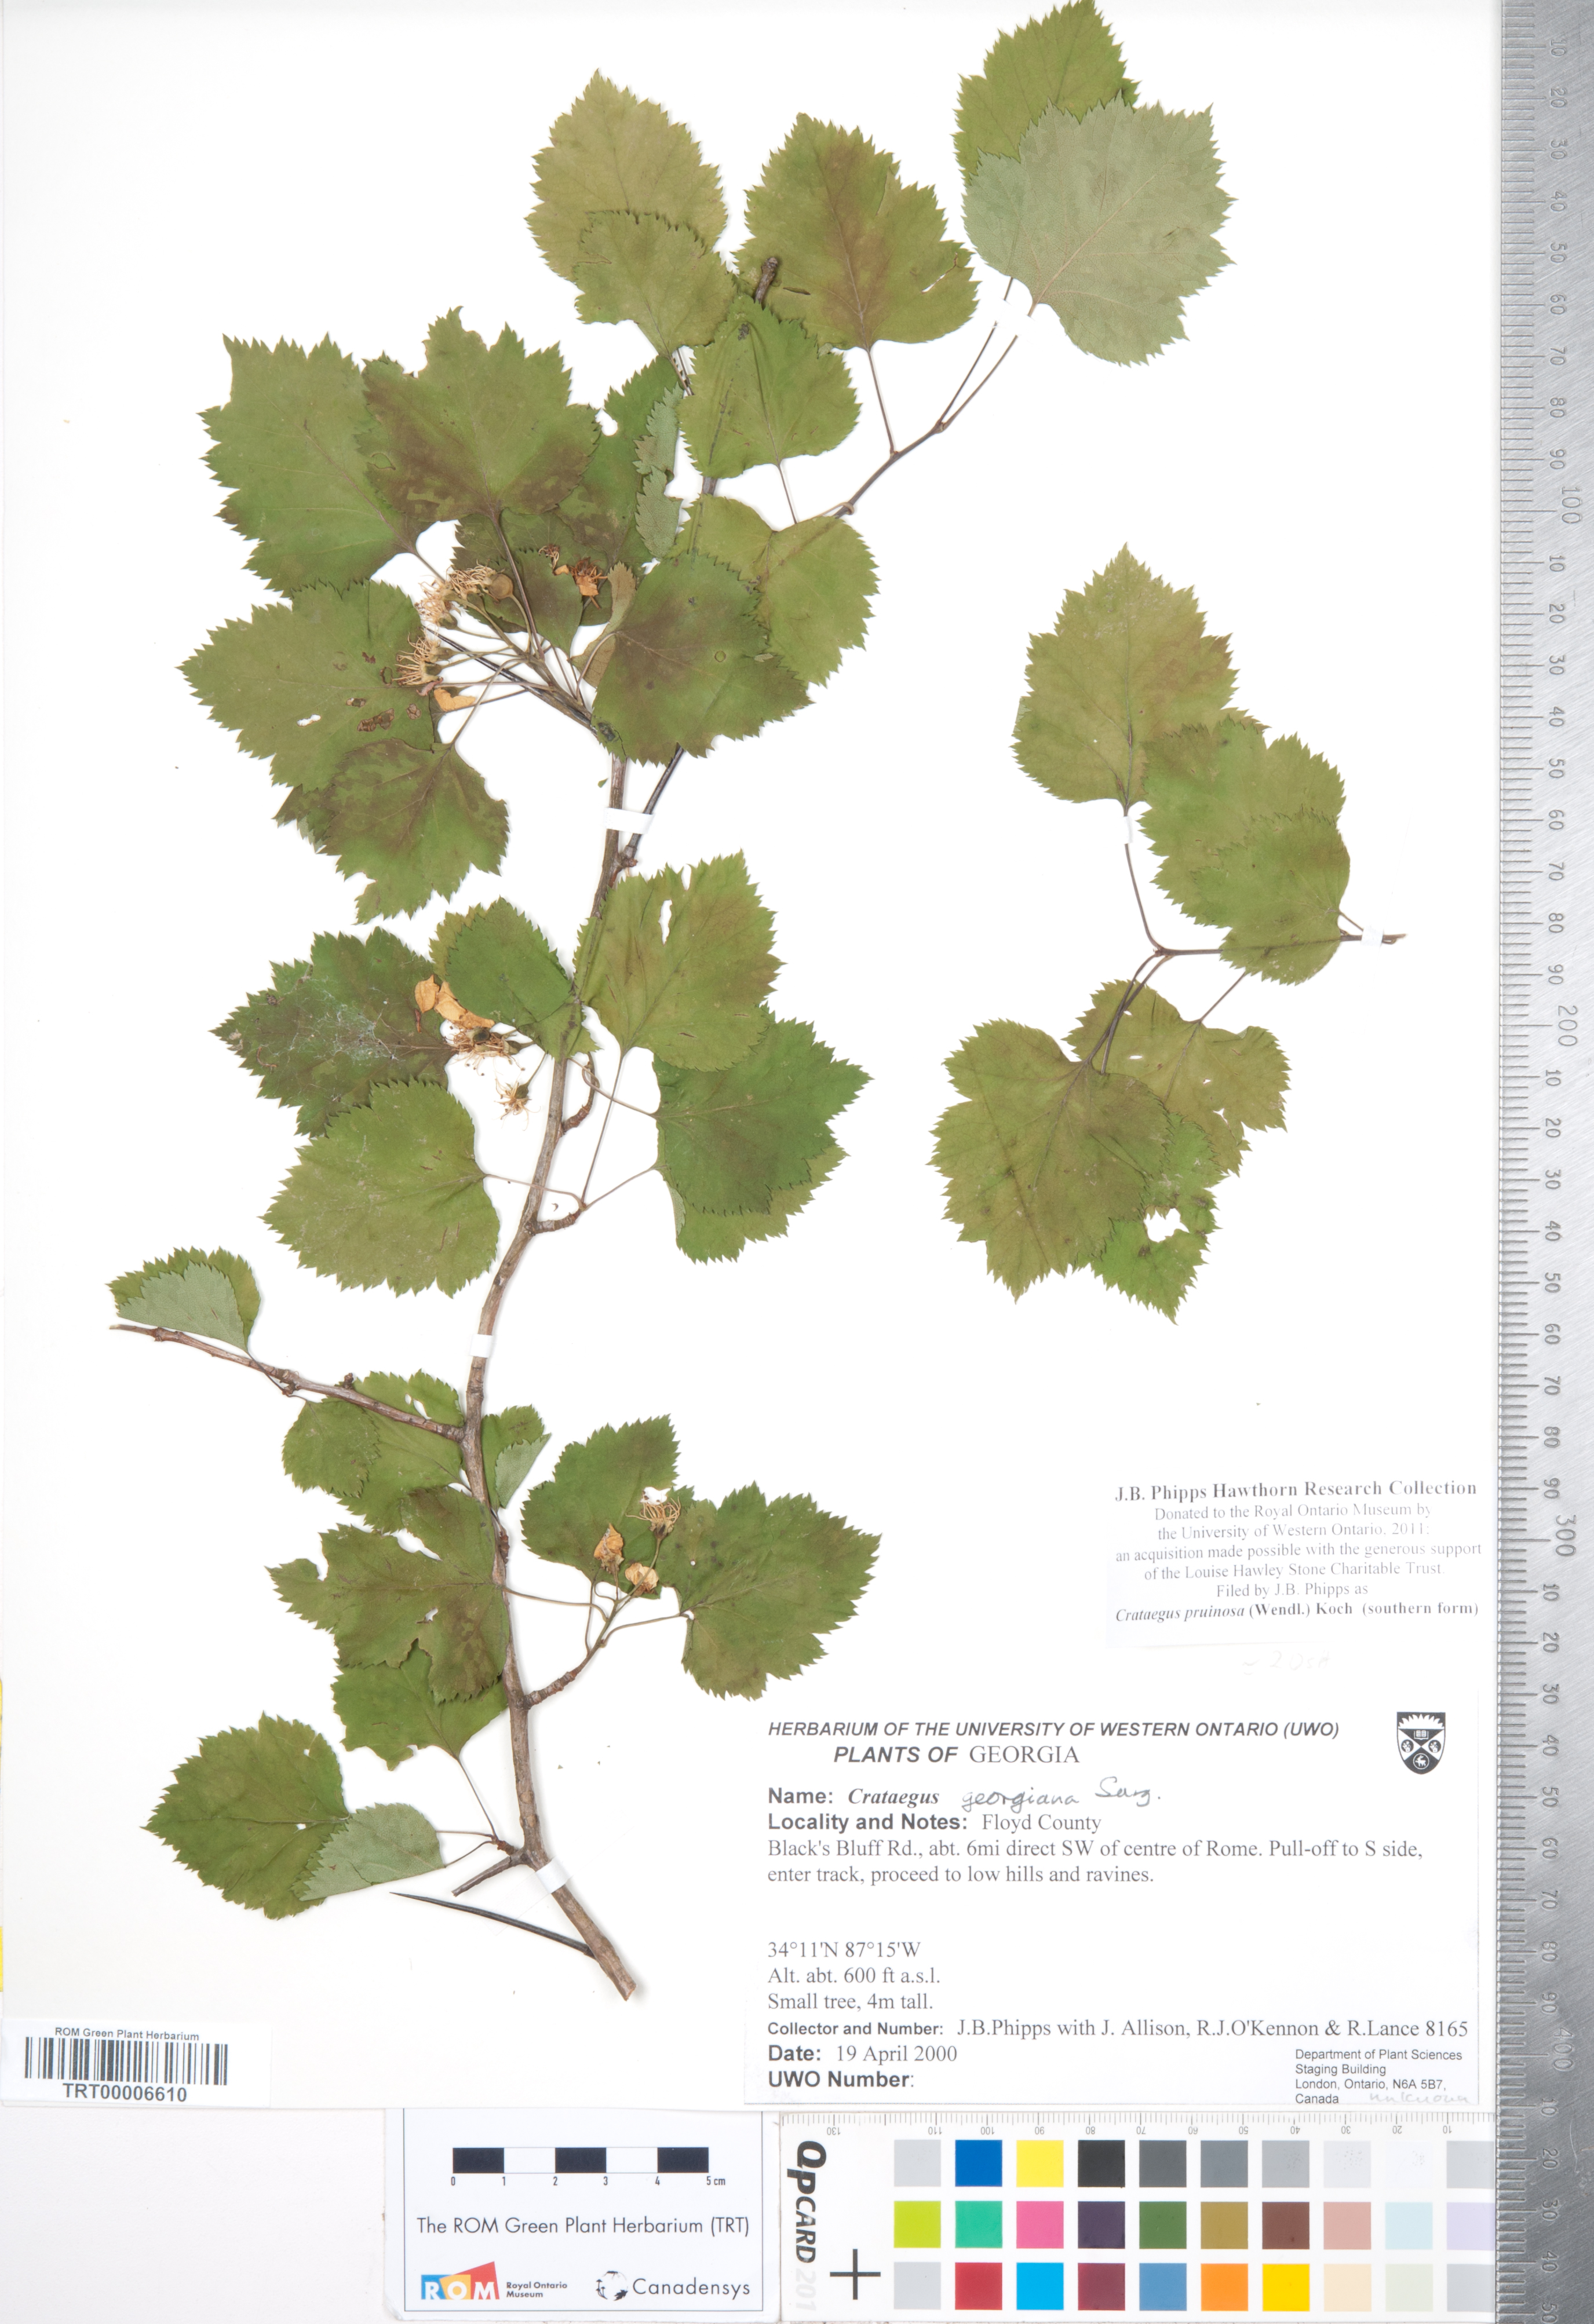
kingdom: Plantae
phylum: Tracheophyta
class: Magnoliopsida
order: Rosales
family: Rosaceae
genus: Crataegus
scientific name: Crataegus pruinosa
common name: Waxy-fruit hawthorn
